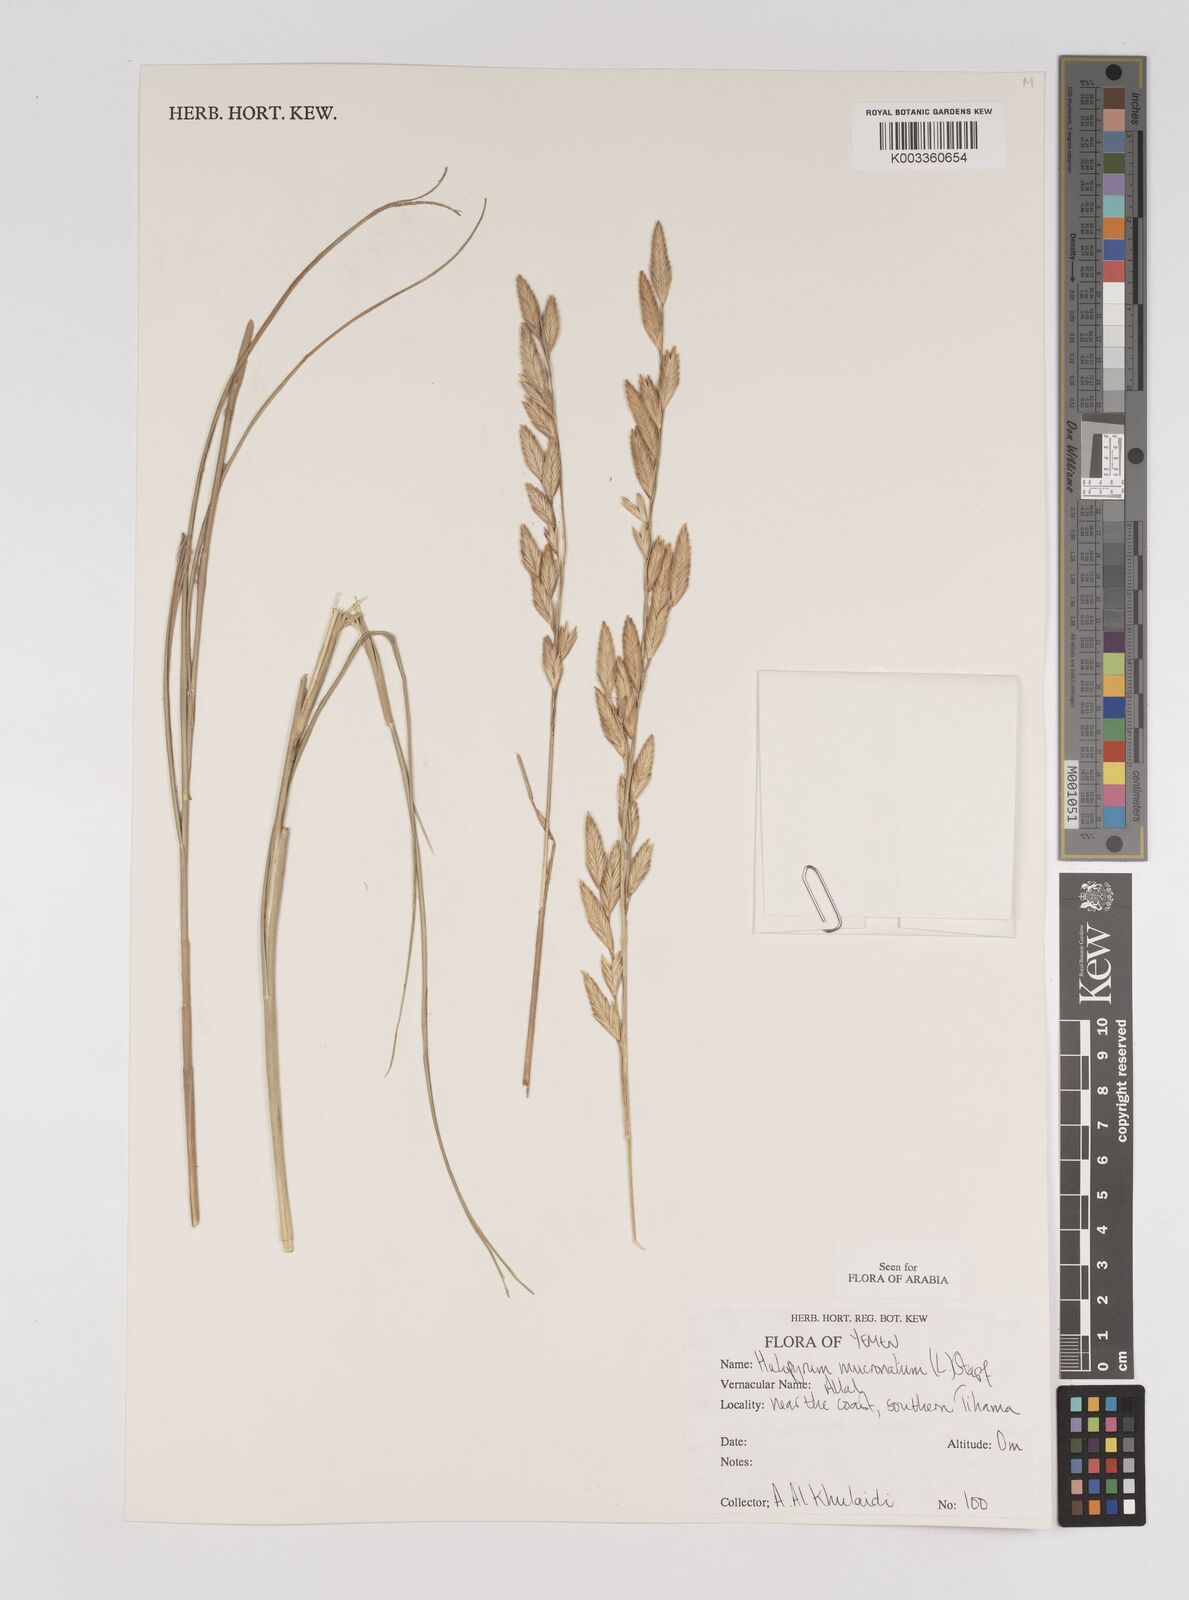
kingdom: Plantae
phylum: Tracheophyta
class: Liliopsida
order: Poales
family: Poaceae
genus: Halopyrum
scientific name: Halopyrum mucronatum
